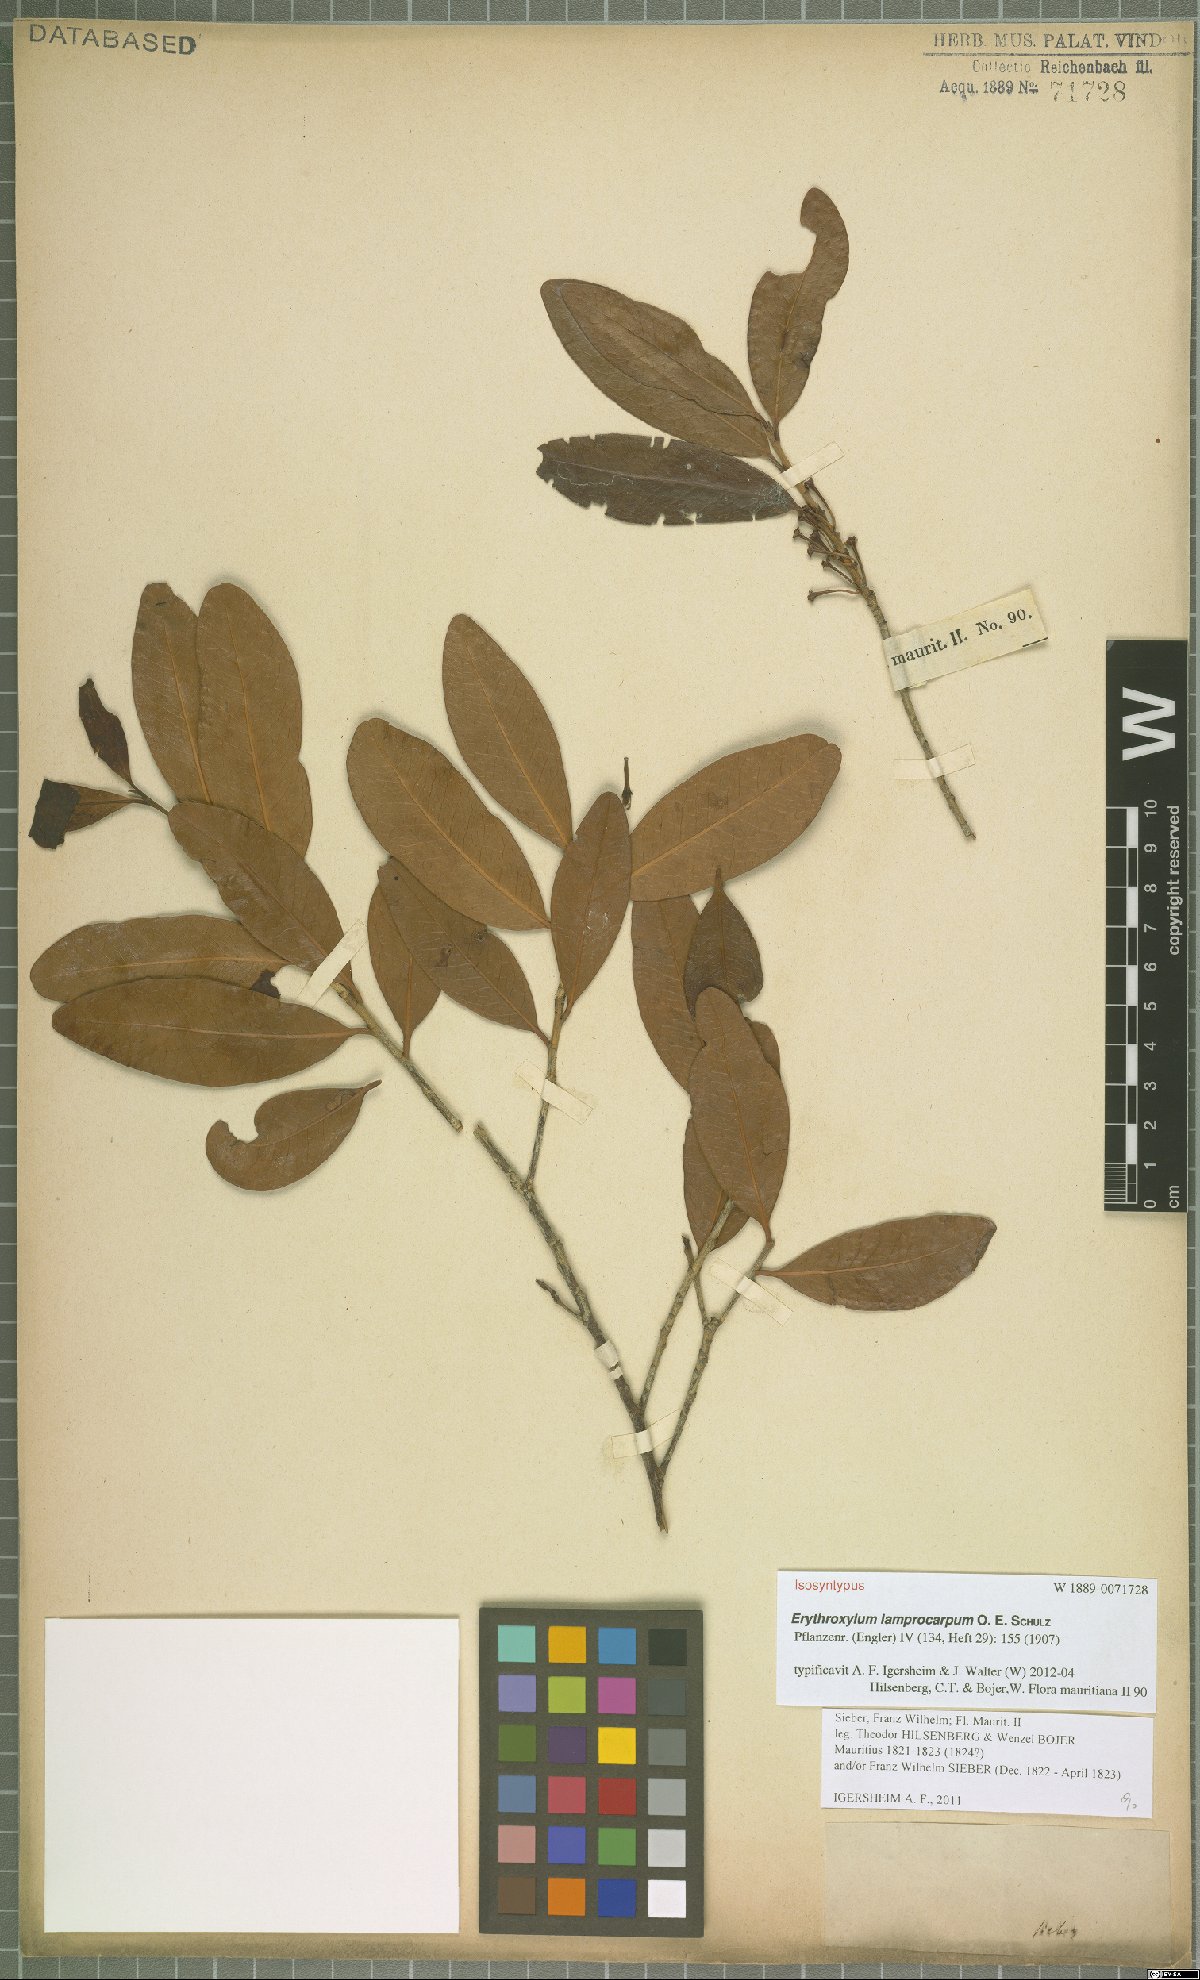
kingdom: Plantae
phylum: Tracheophyta
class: Magnoliopsida
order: Malpighiales
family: Erythroxylaceae
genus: Erythroxylum
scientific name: Erythroxylum sideroxyloides
